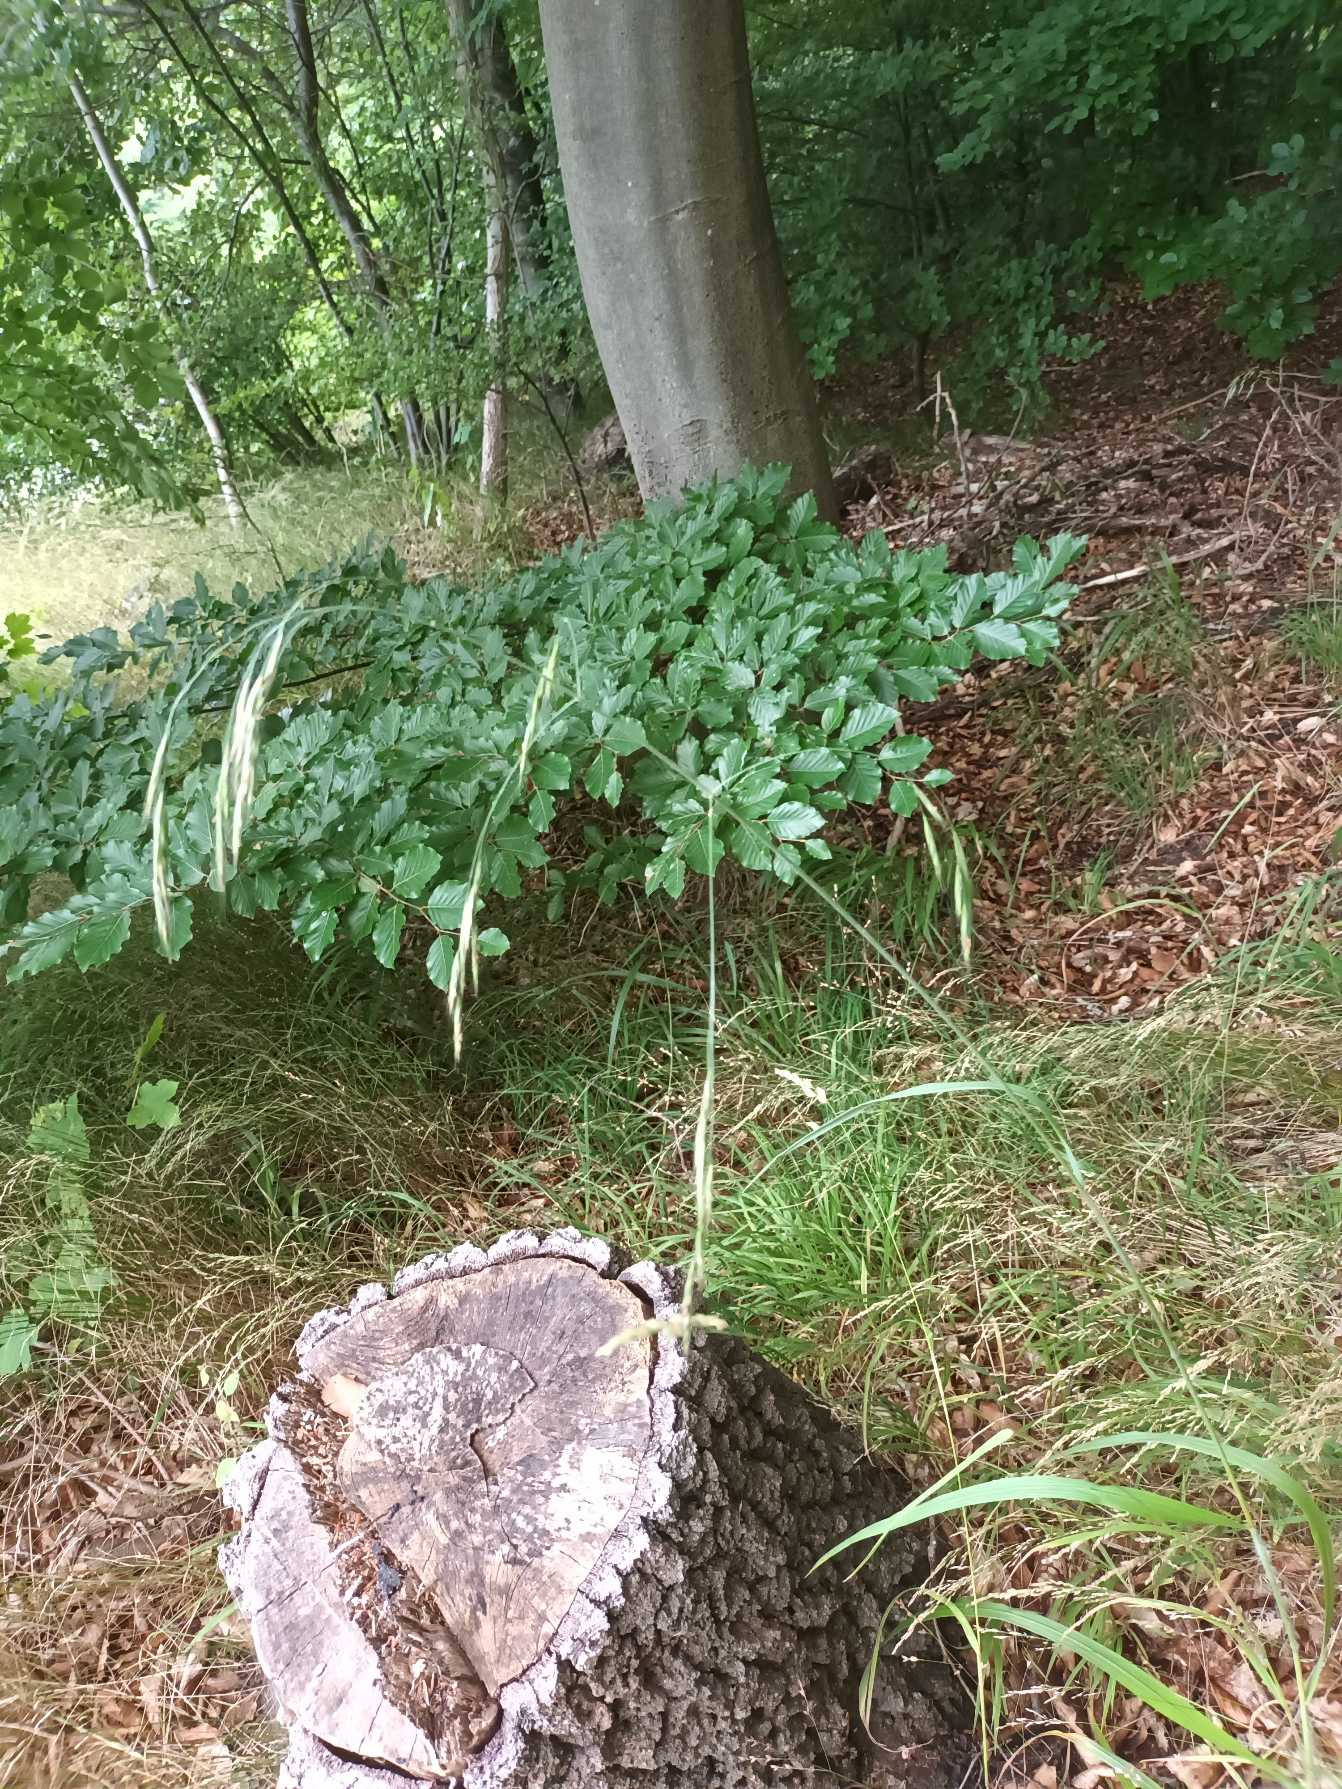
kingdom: Plantae
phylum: Tracheophyta
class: Liliopsida
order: Poales
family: Poaceae
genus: Bromus
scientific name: Bromus ramosus
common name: Sildig skov-hejre
